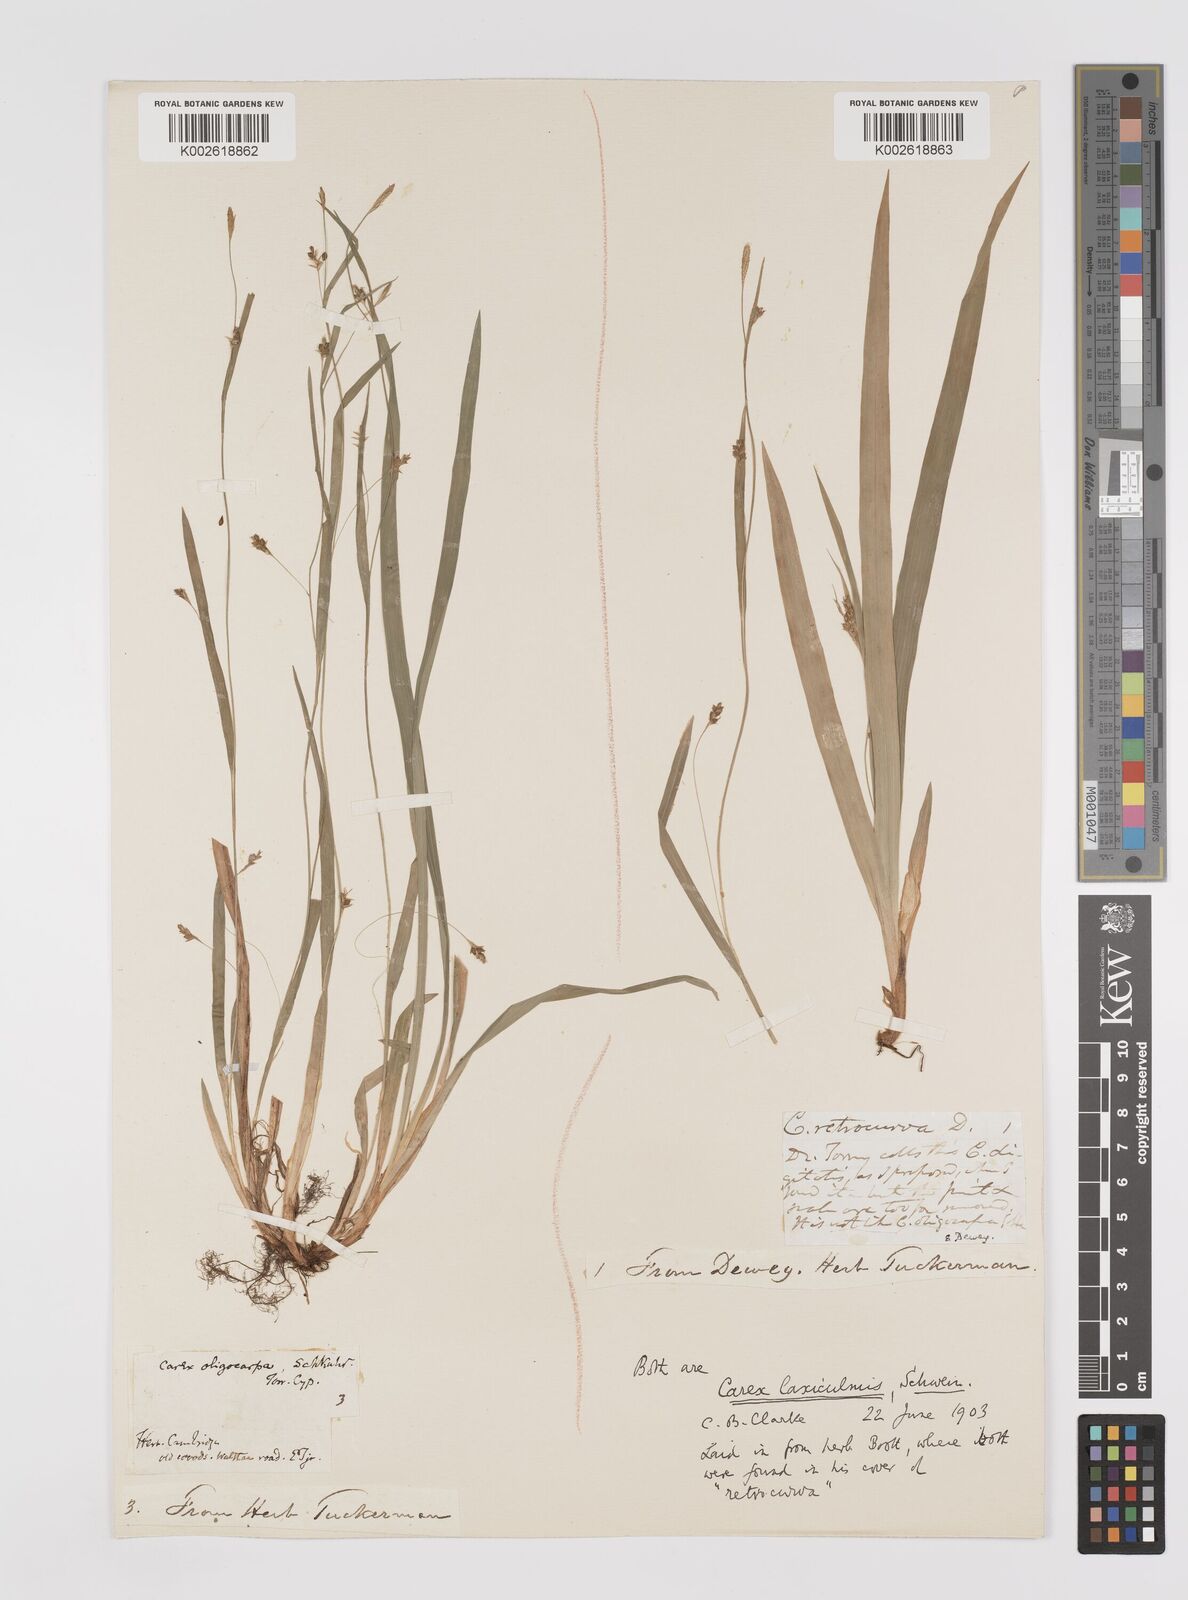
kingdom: Plantae
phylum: Tracheophyta
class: Liliopsida
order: Poales
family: Cyperaceae
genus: Carex
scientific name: Carex laxiculmis
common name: Spreading sedge
